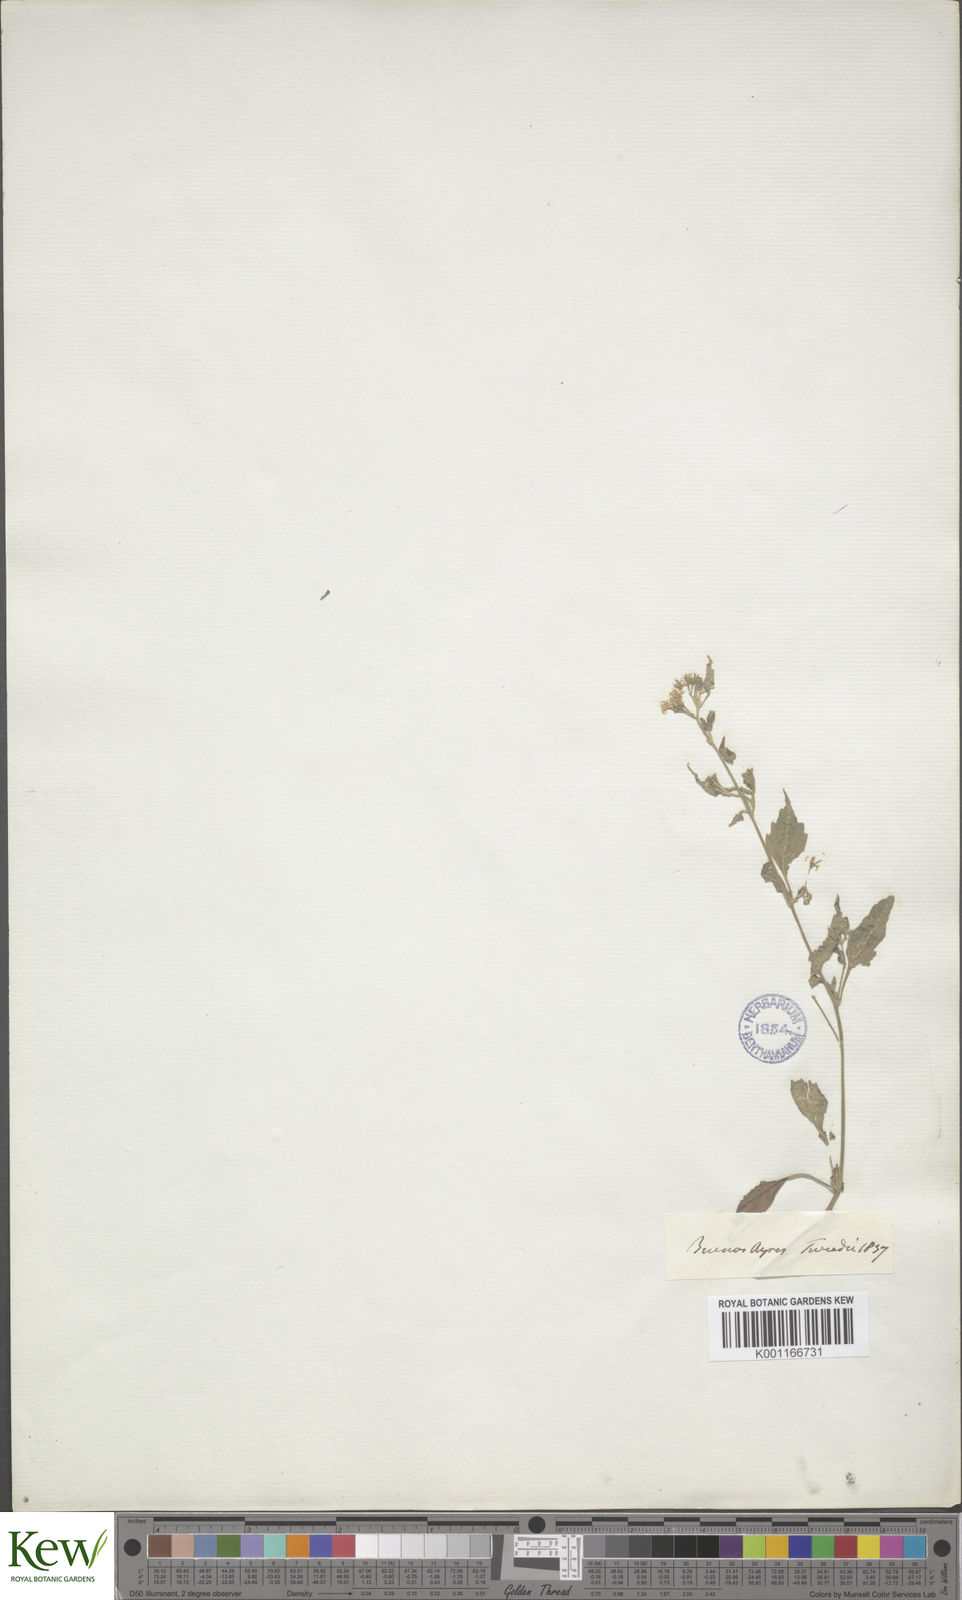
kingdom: Plantae
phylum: Tracheophyta
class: Magnoliopsida
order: Solanales
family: Solanaceae
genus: Solanum
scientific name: Solanum
